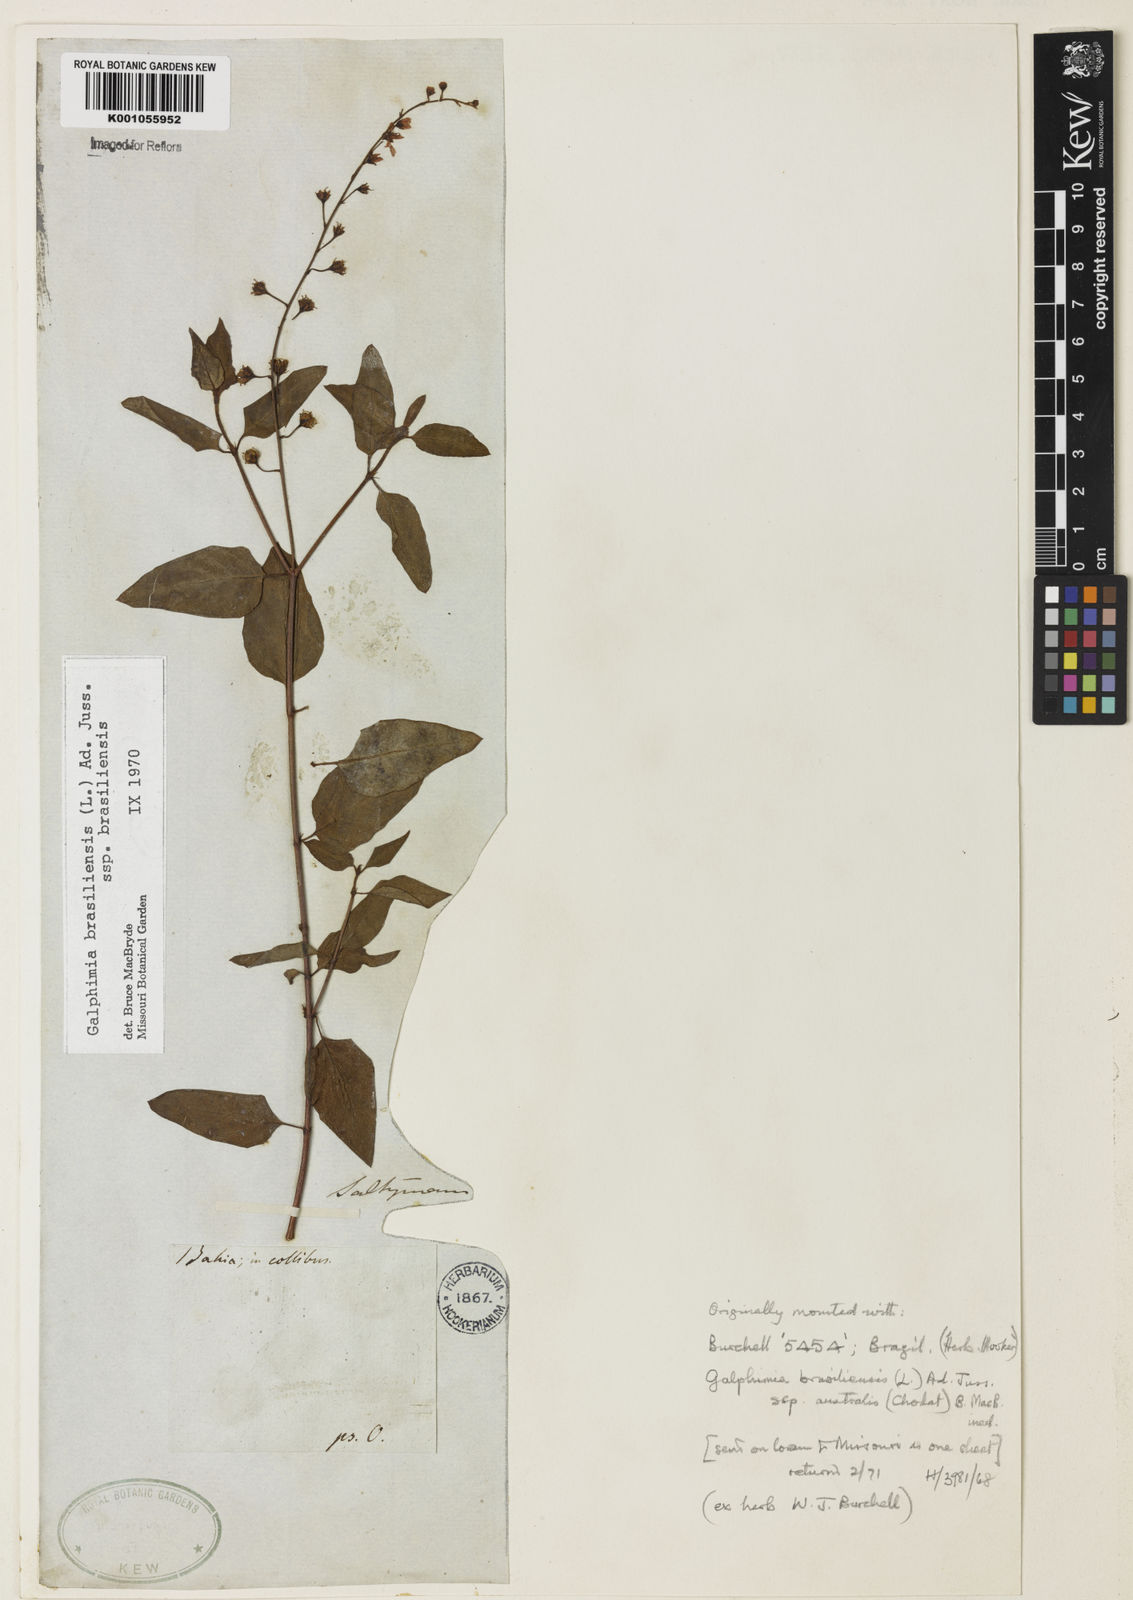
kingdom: Plantae
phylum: Tracheophyta
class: Magnoliopsida
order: Malpighiales
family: Malpighiaceae
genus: Galphimia
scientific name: Galphimia brasiliensis
